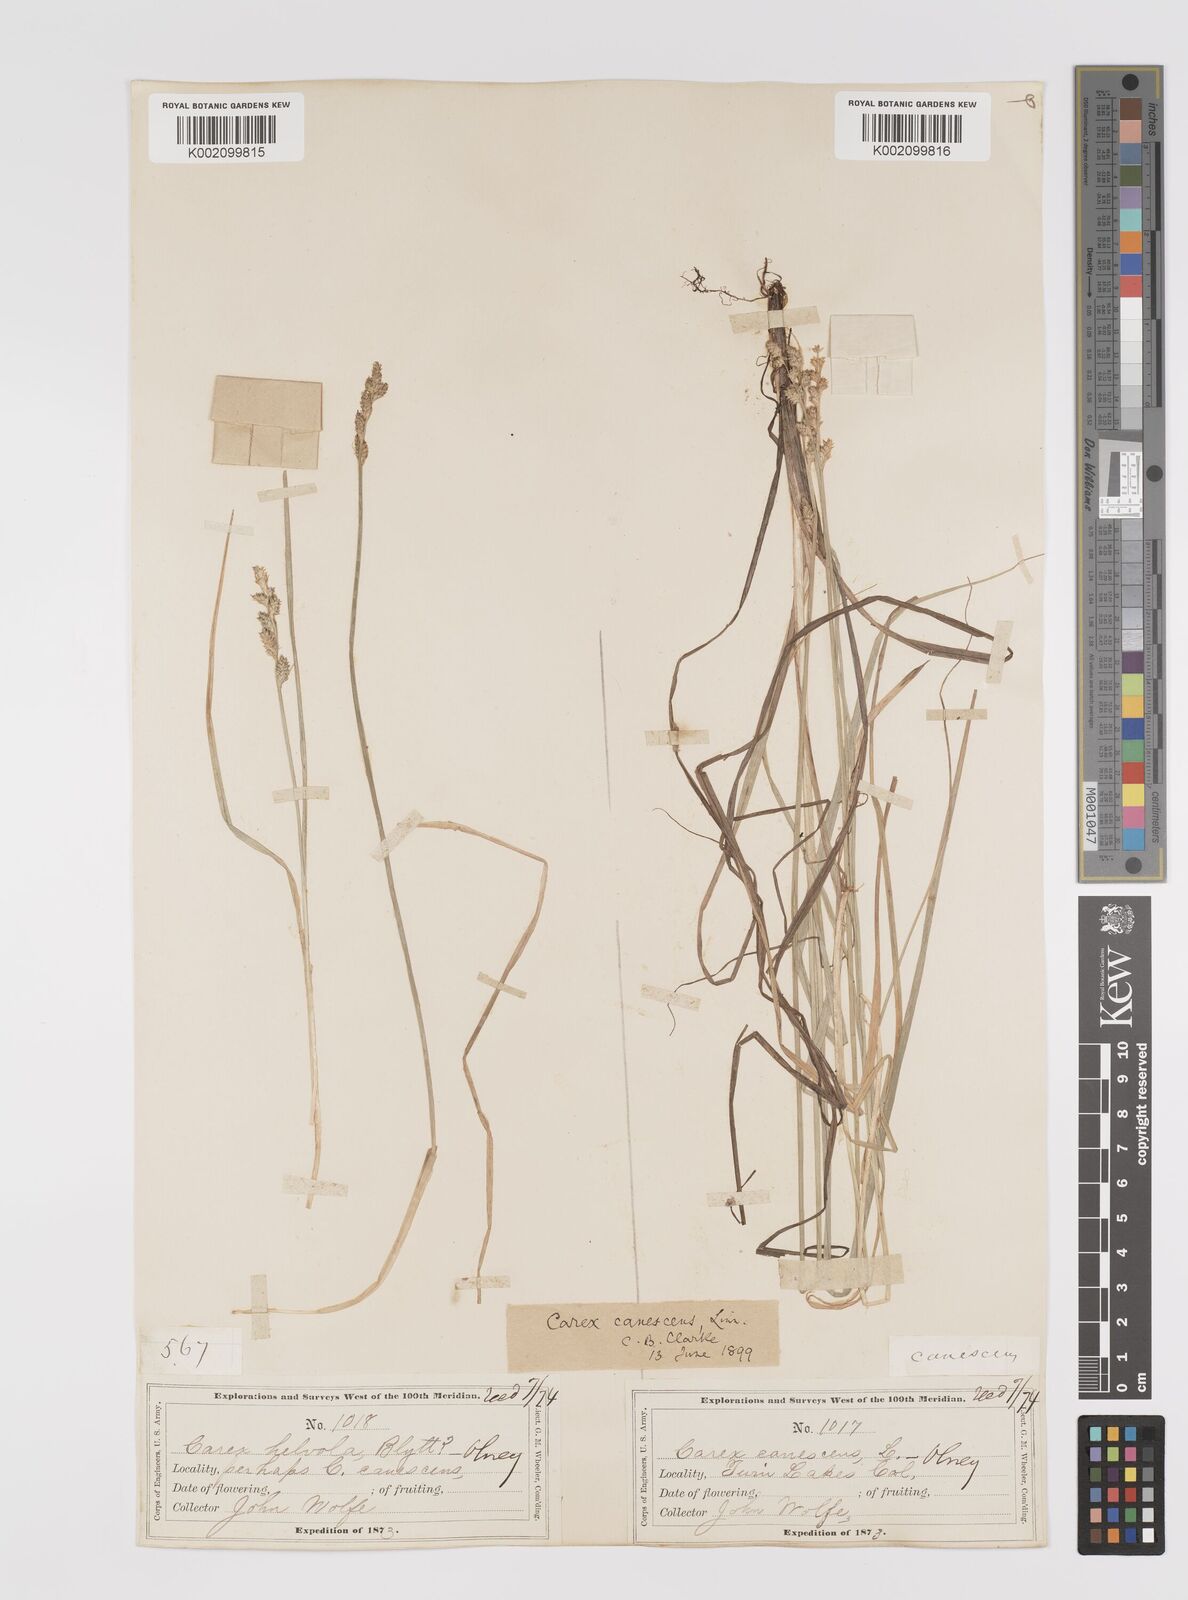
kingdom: Plantae
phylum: Tracheophyta
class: Liliopsida
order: Poales
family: Cyperaceae
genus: Carex
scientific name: Carex curta
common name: White sedge
